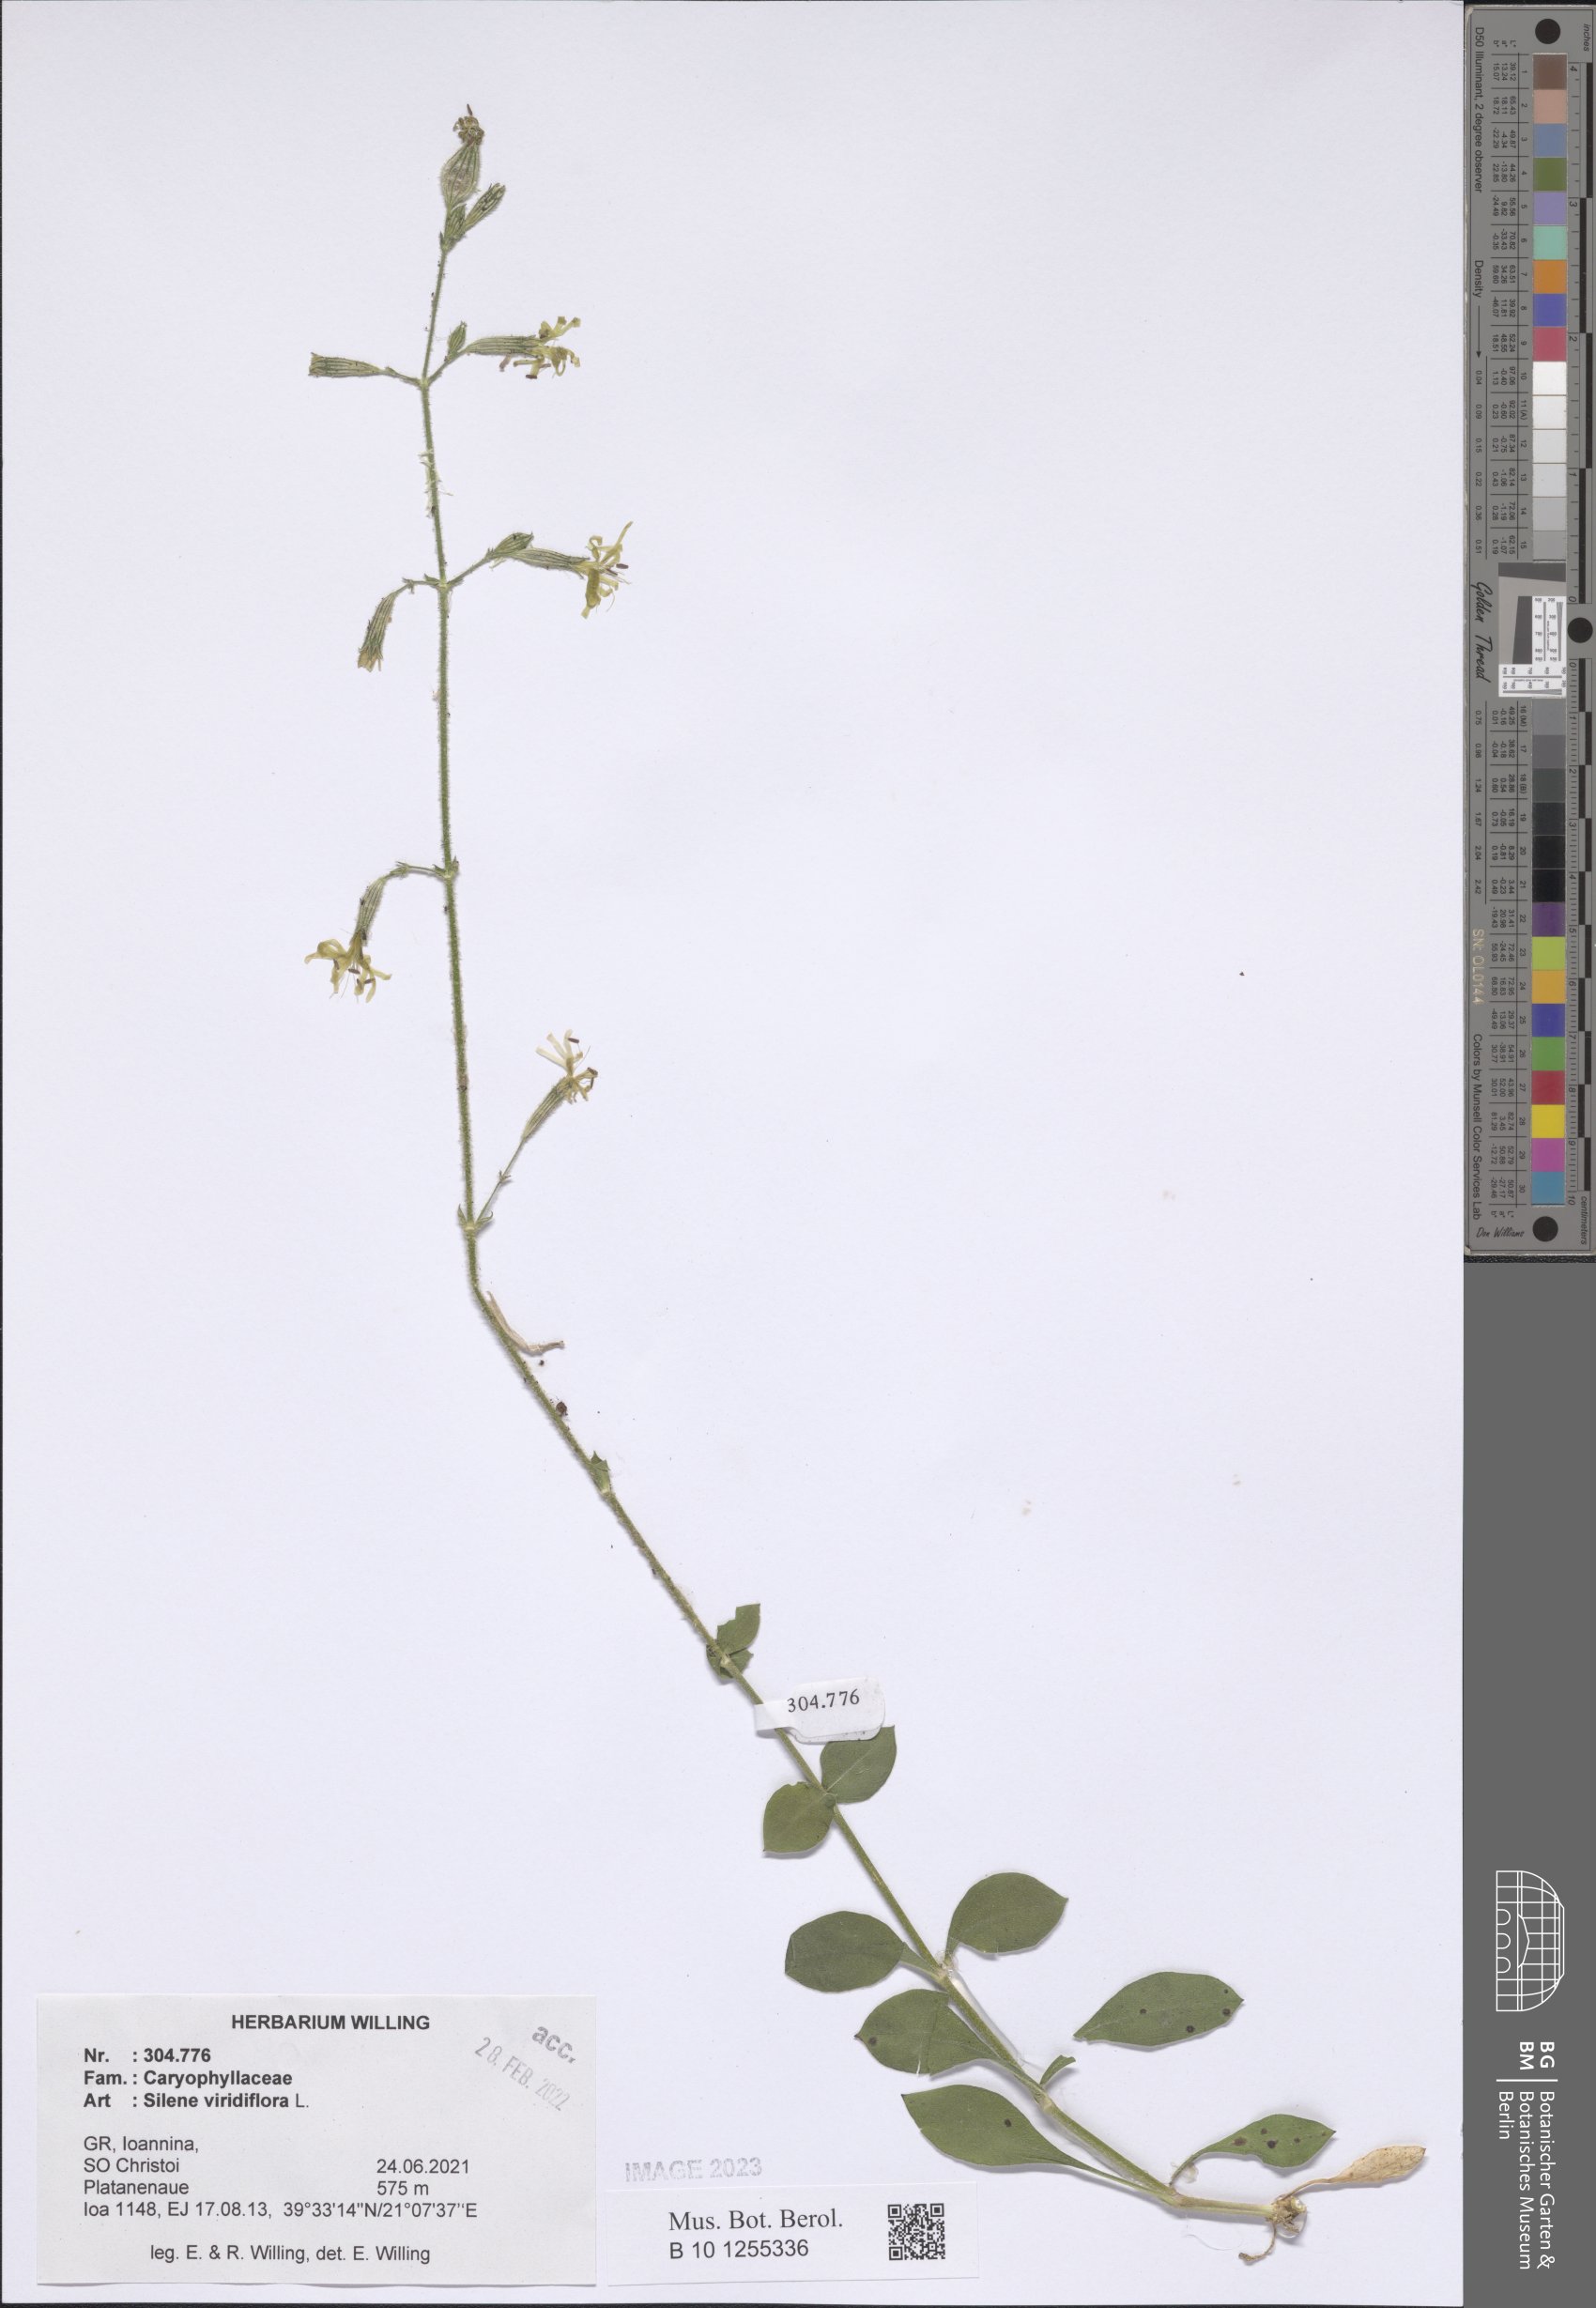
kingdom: Plantae
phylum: Tracheophyta
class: Magnoliopsida
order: Caryophyllales
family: Caryophyllaceae
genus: Silene
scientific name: Silene viridiflora
